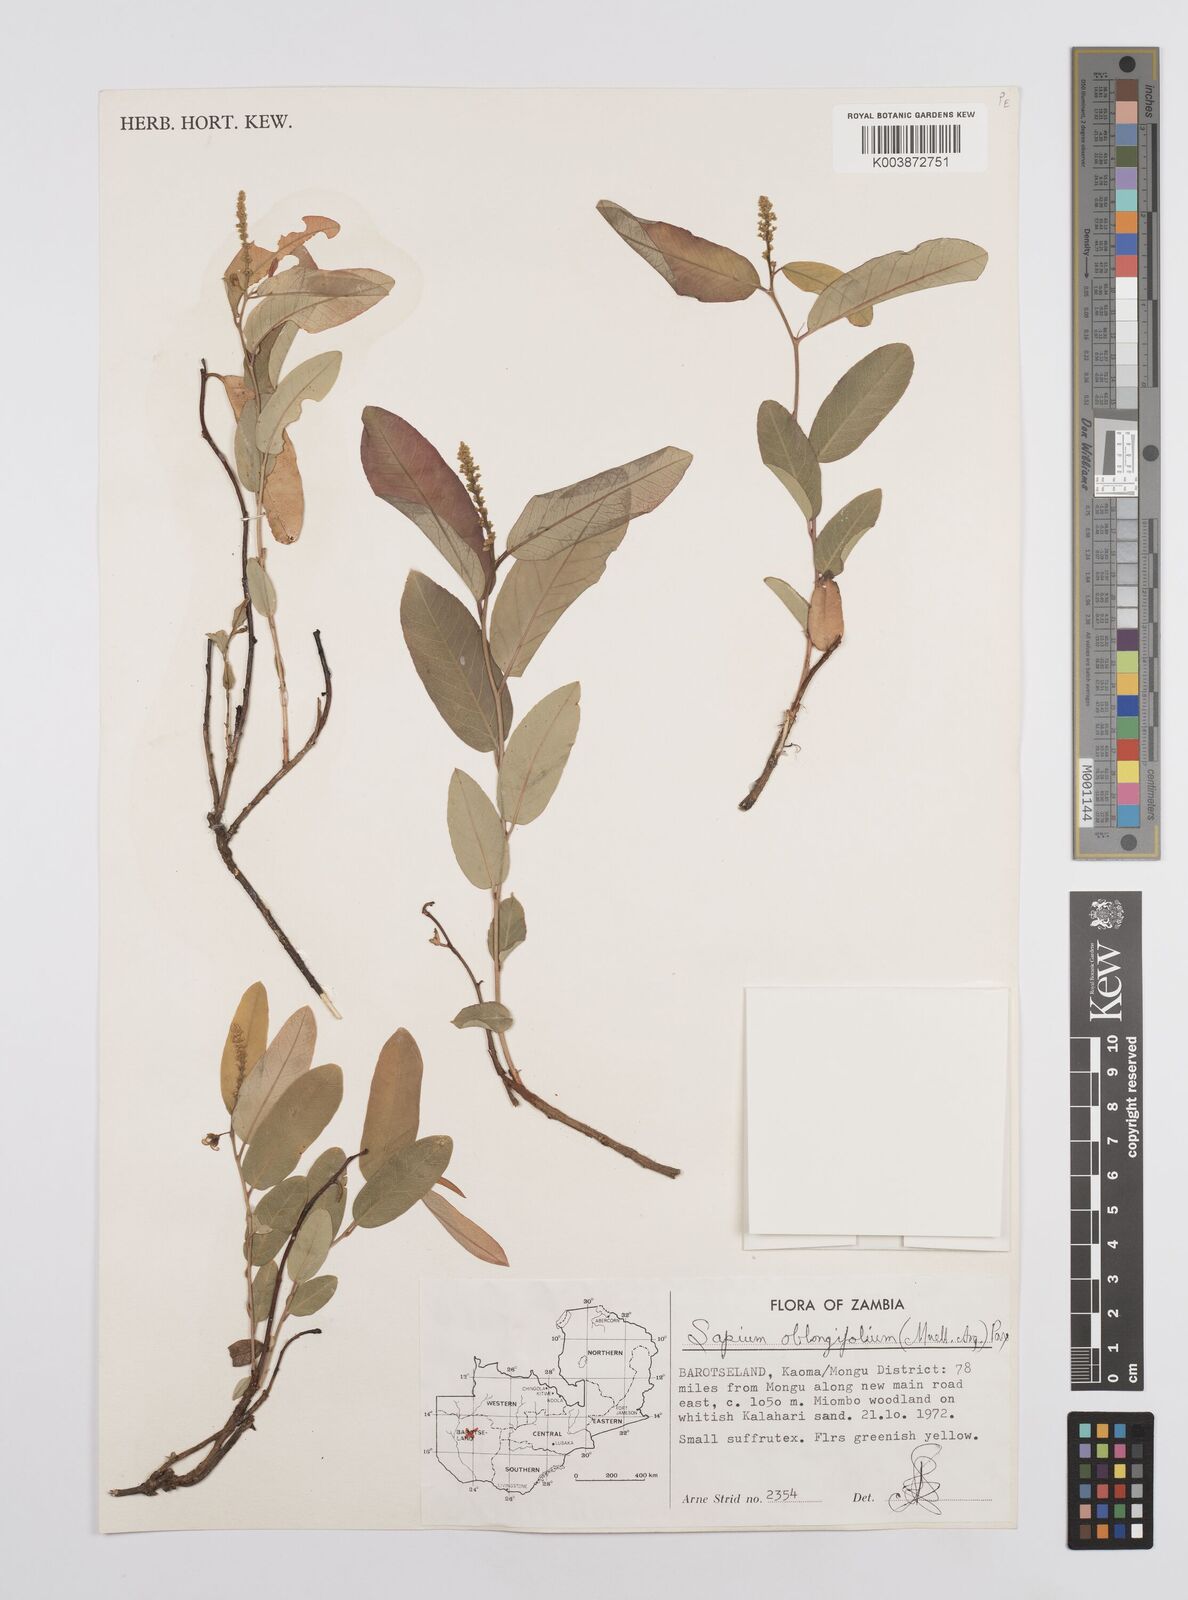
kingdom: Plantae
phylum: Tracheophyta
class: Magnoliopsida
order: Malpighiales
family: Euphorbiaceae
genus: Sclerocroton
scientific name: Sclerocroton oblongifolius
